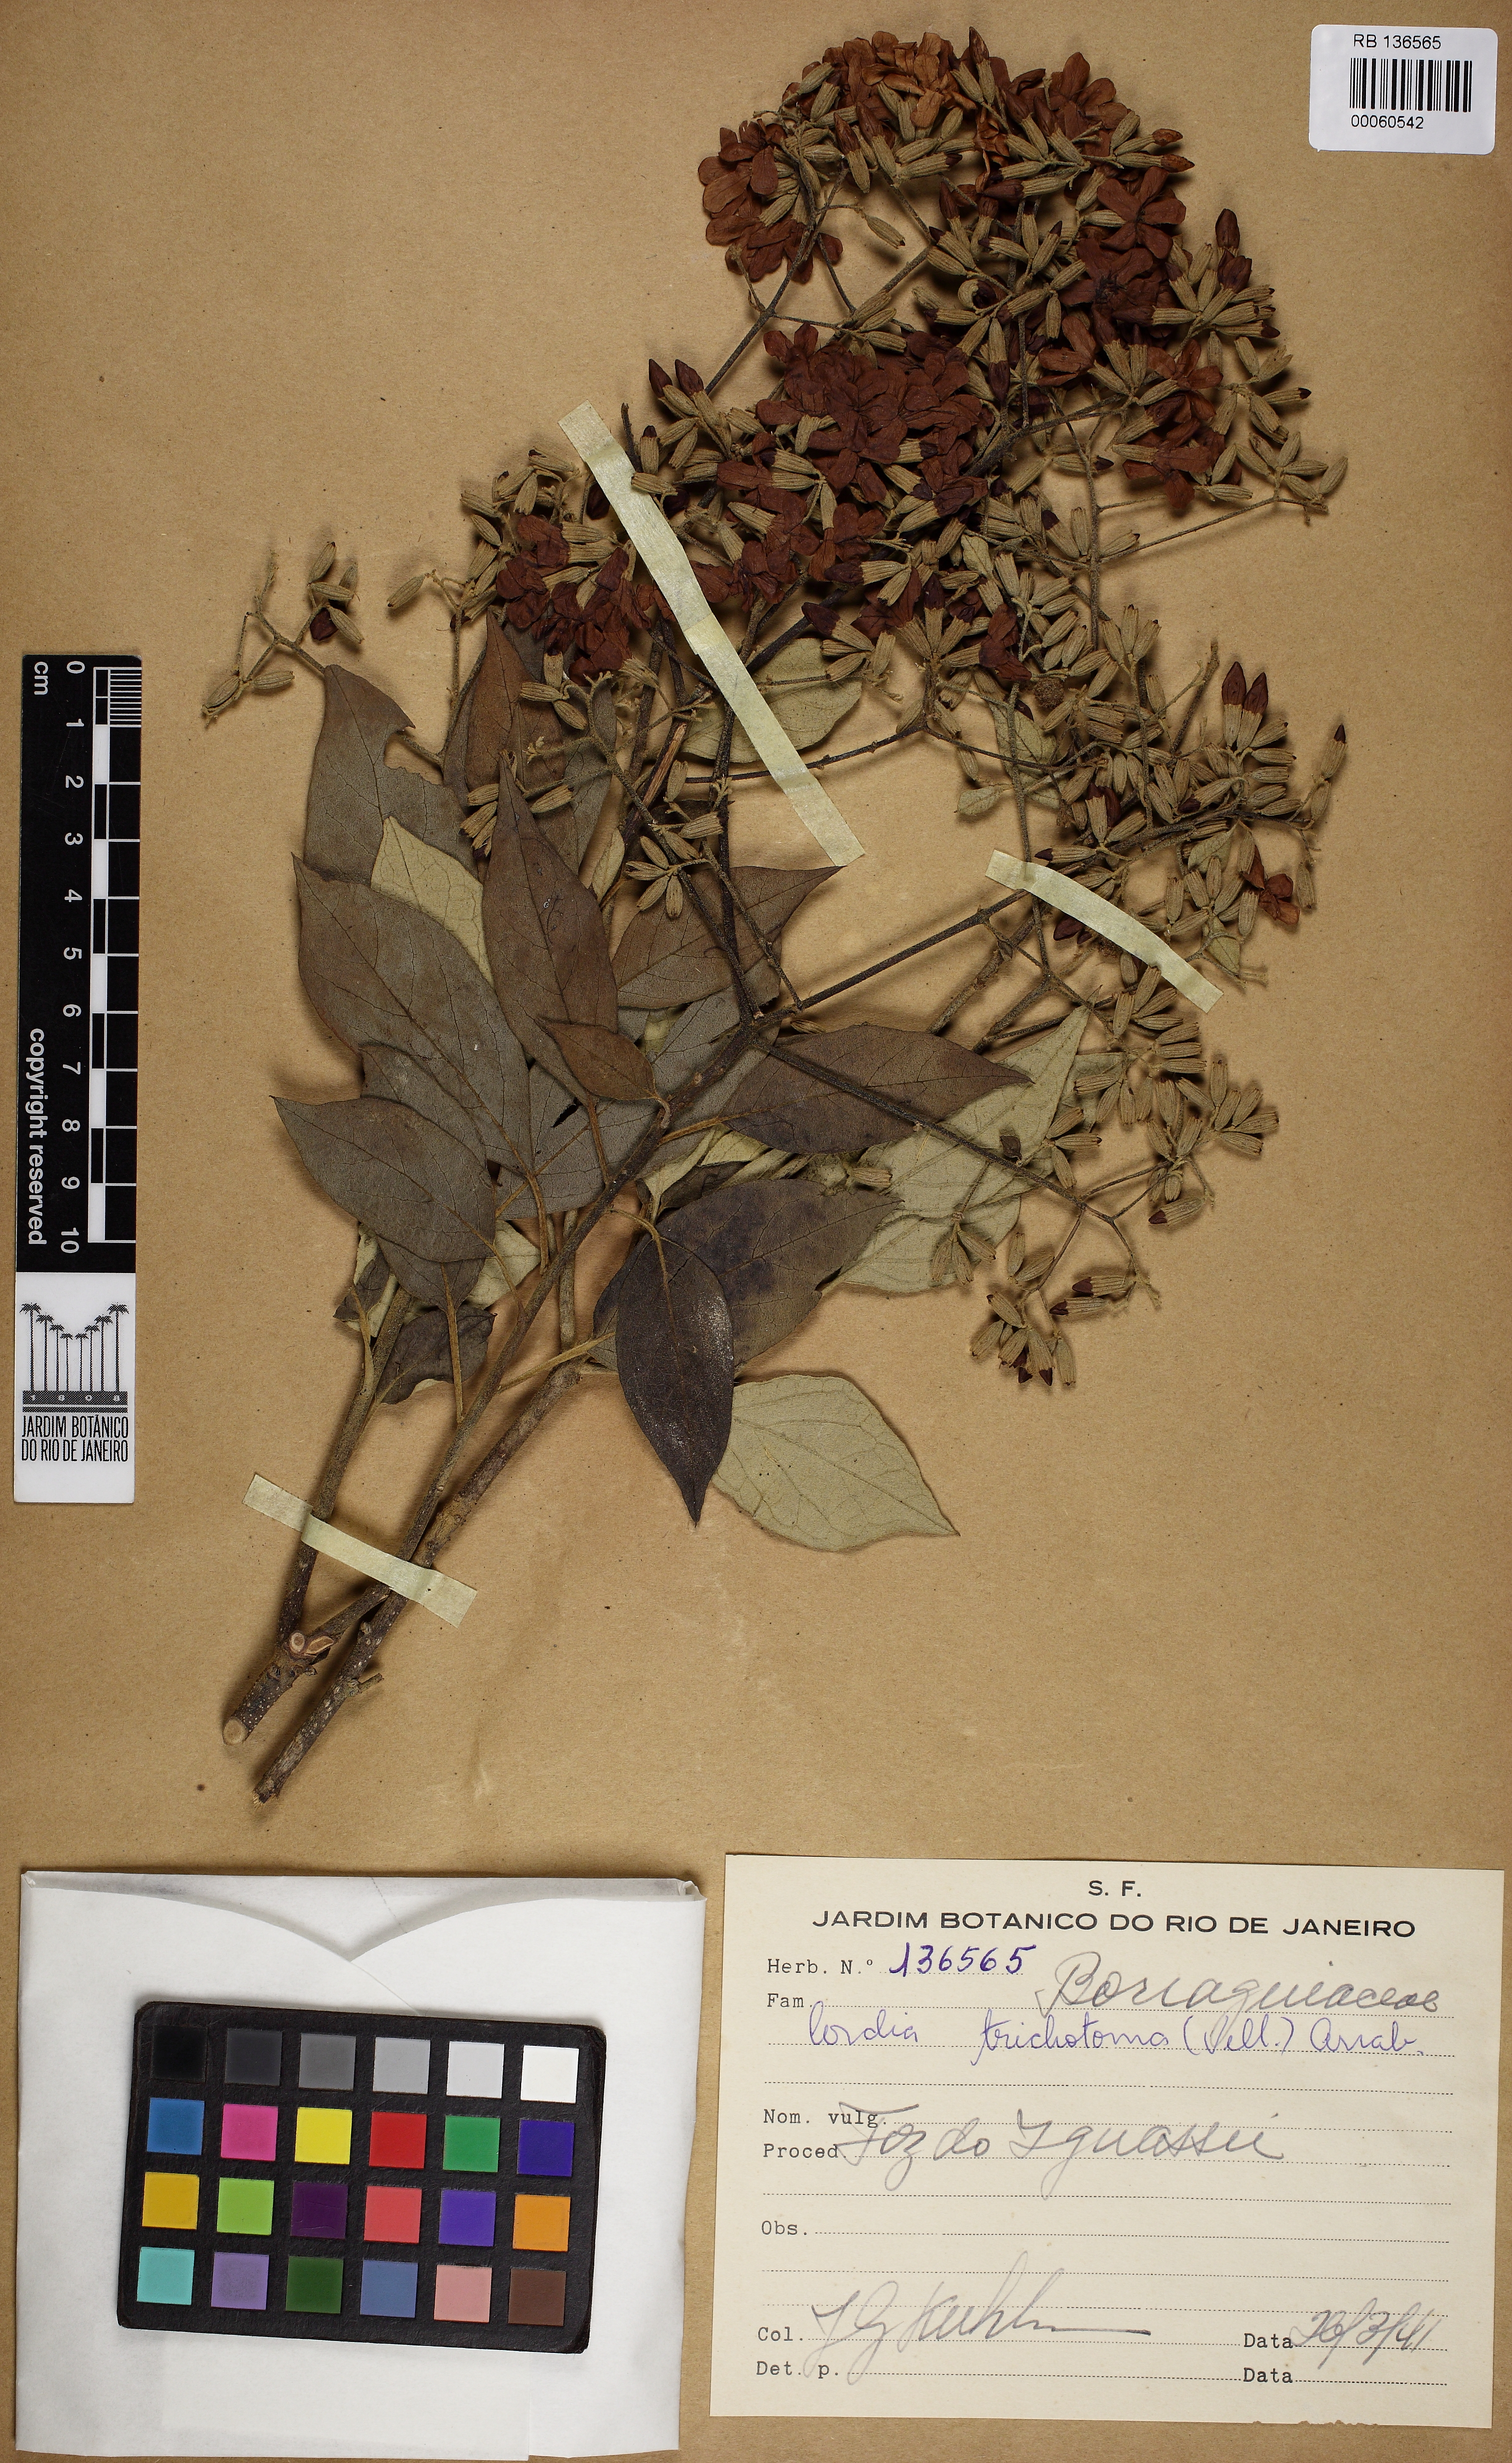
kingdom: Plantae
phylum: Tracheophyta
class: Magnoliopsida
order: Boraginales
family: Cordiaceae
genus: Cordia
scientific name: Cordia trichotoma
